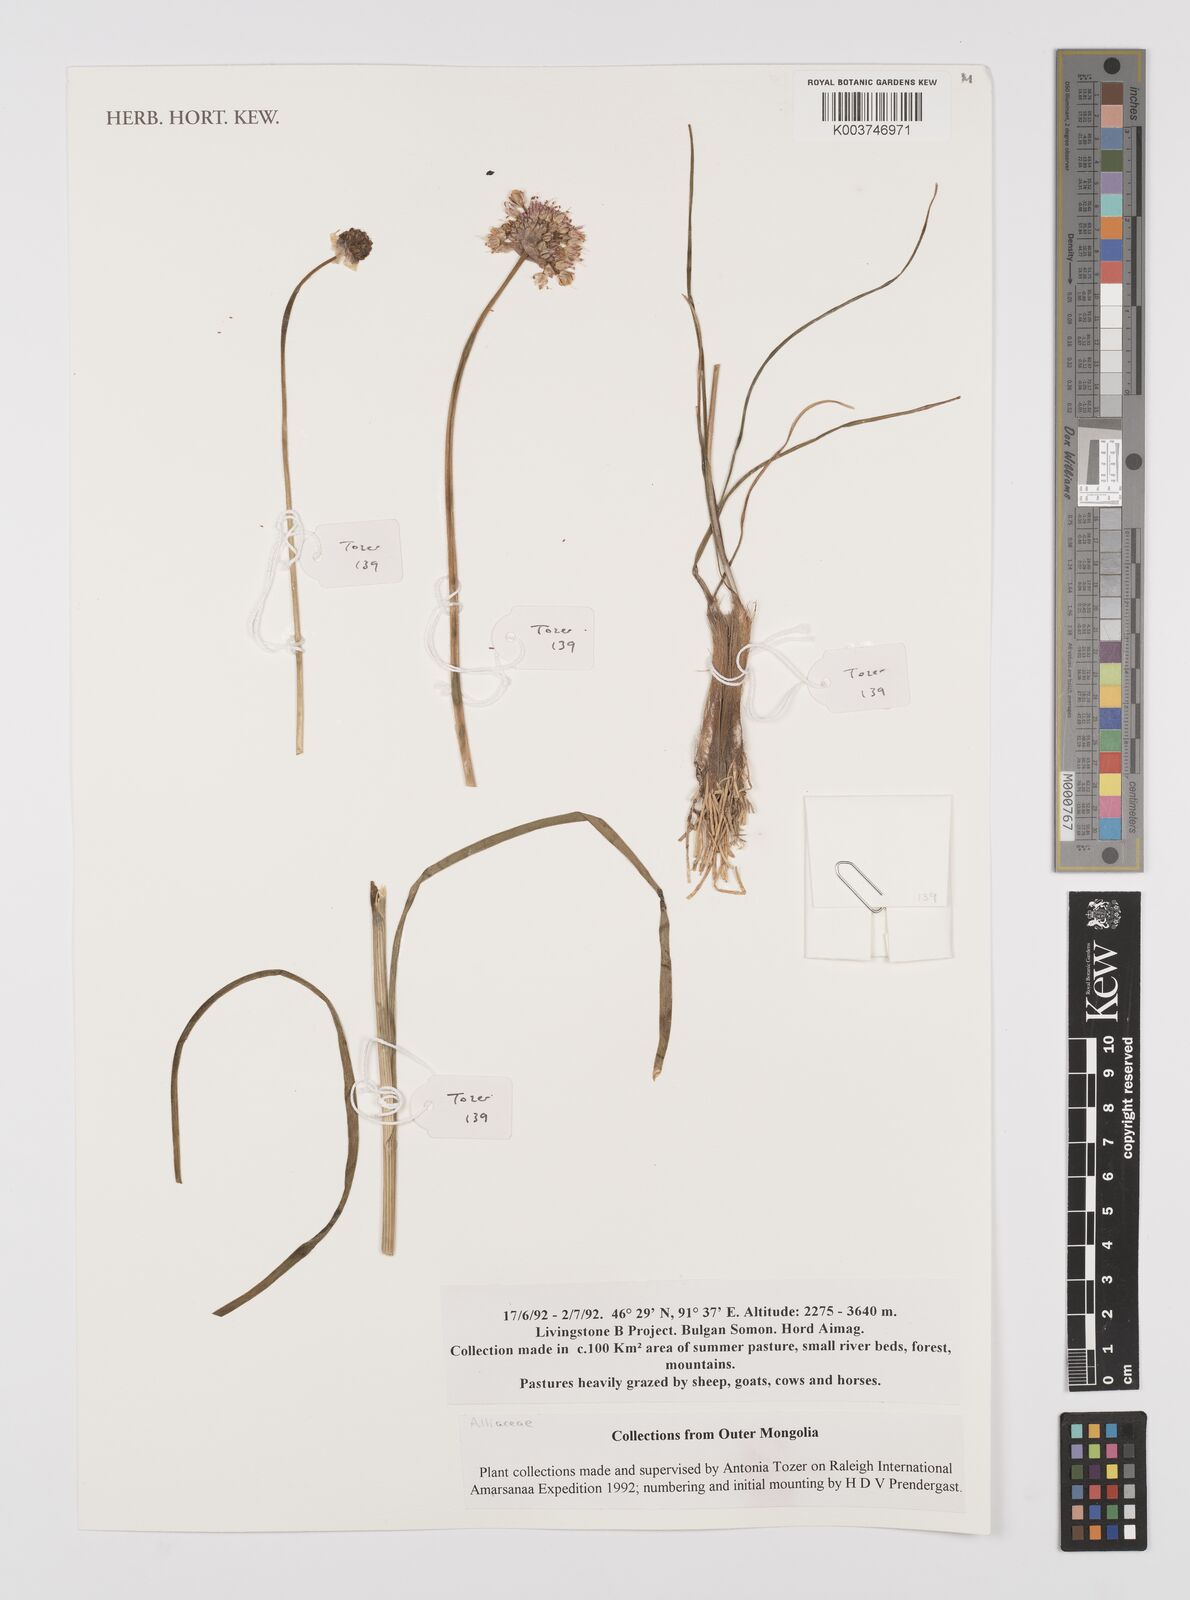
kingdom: Plantae
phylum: Tracheophyta
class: Liliopsida
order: Asparagales
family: Amaryllidaceae
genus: Allium
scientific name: Allium
